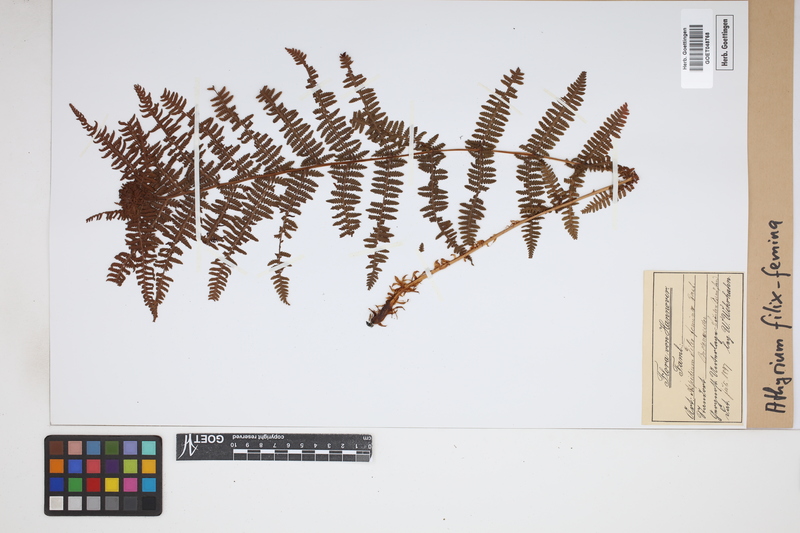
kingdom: Plantae
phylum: Tracheophyta
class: Polypodiopsida
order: Polypodiales
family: Athyriaceae
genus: Athyrium
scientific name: Athyrium filix-femina
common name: Lady fern
